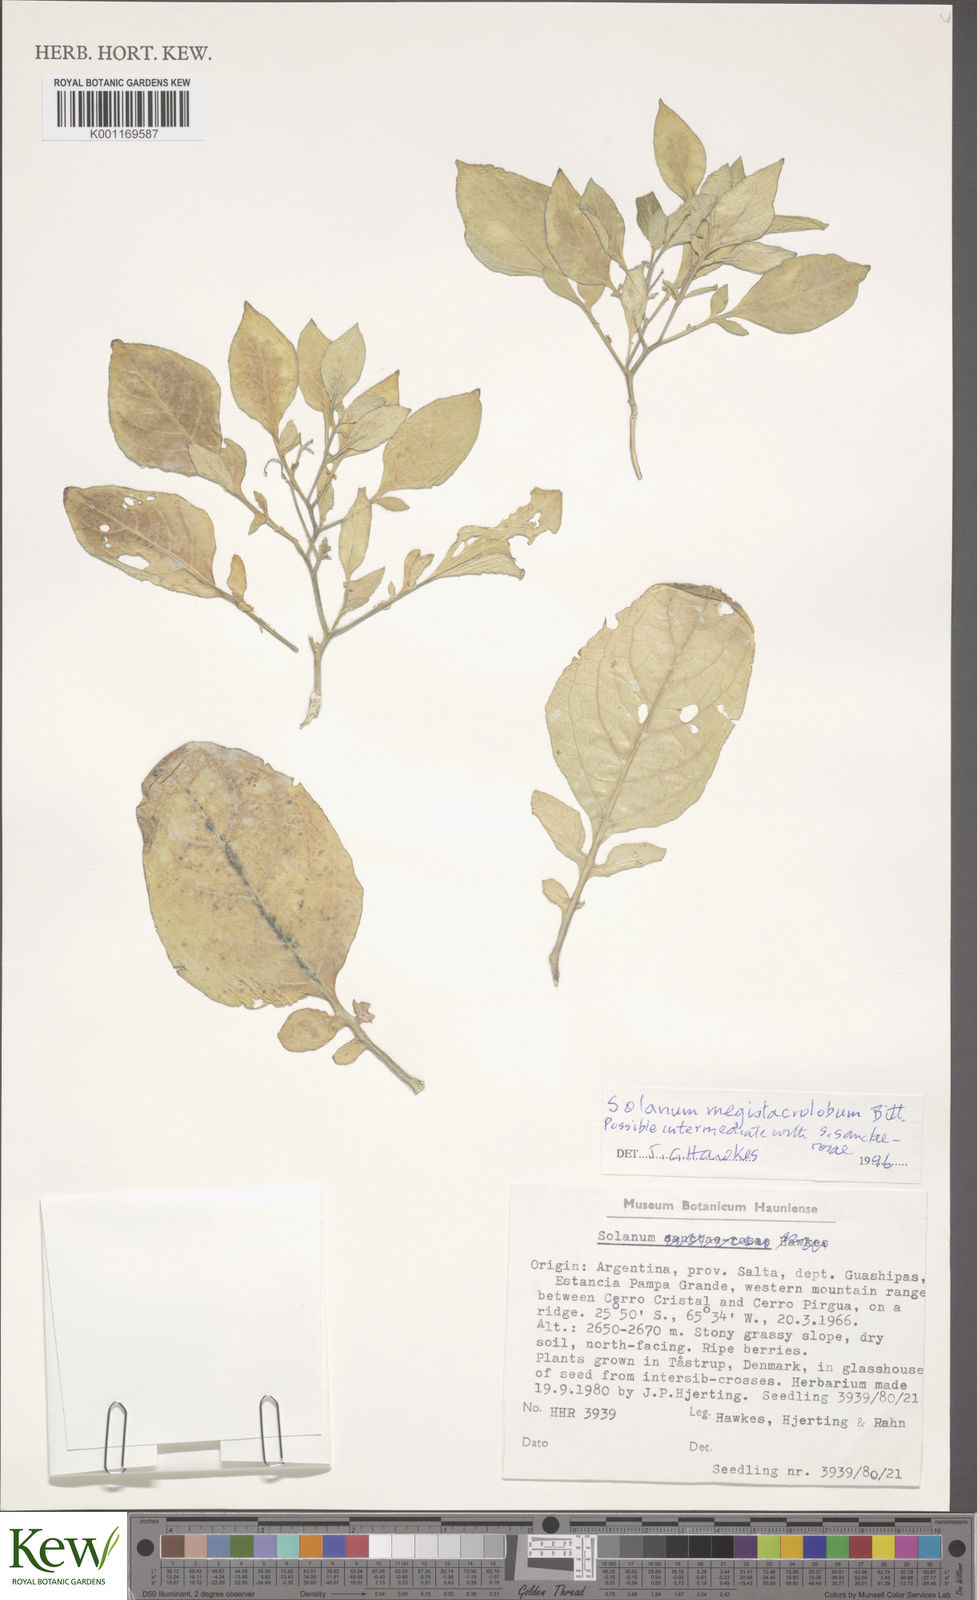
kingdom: Plantae
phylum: Tracheophyta
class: Magnoliopsida
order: Solanales
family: Solanaceae
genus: Solanum
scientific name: Solanum boliviense
